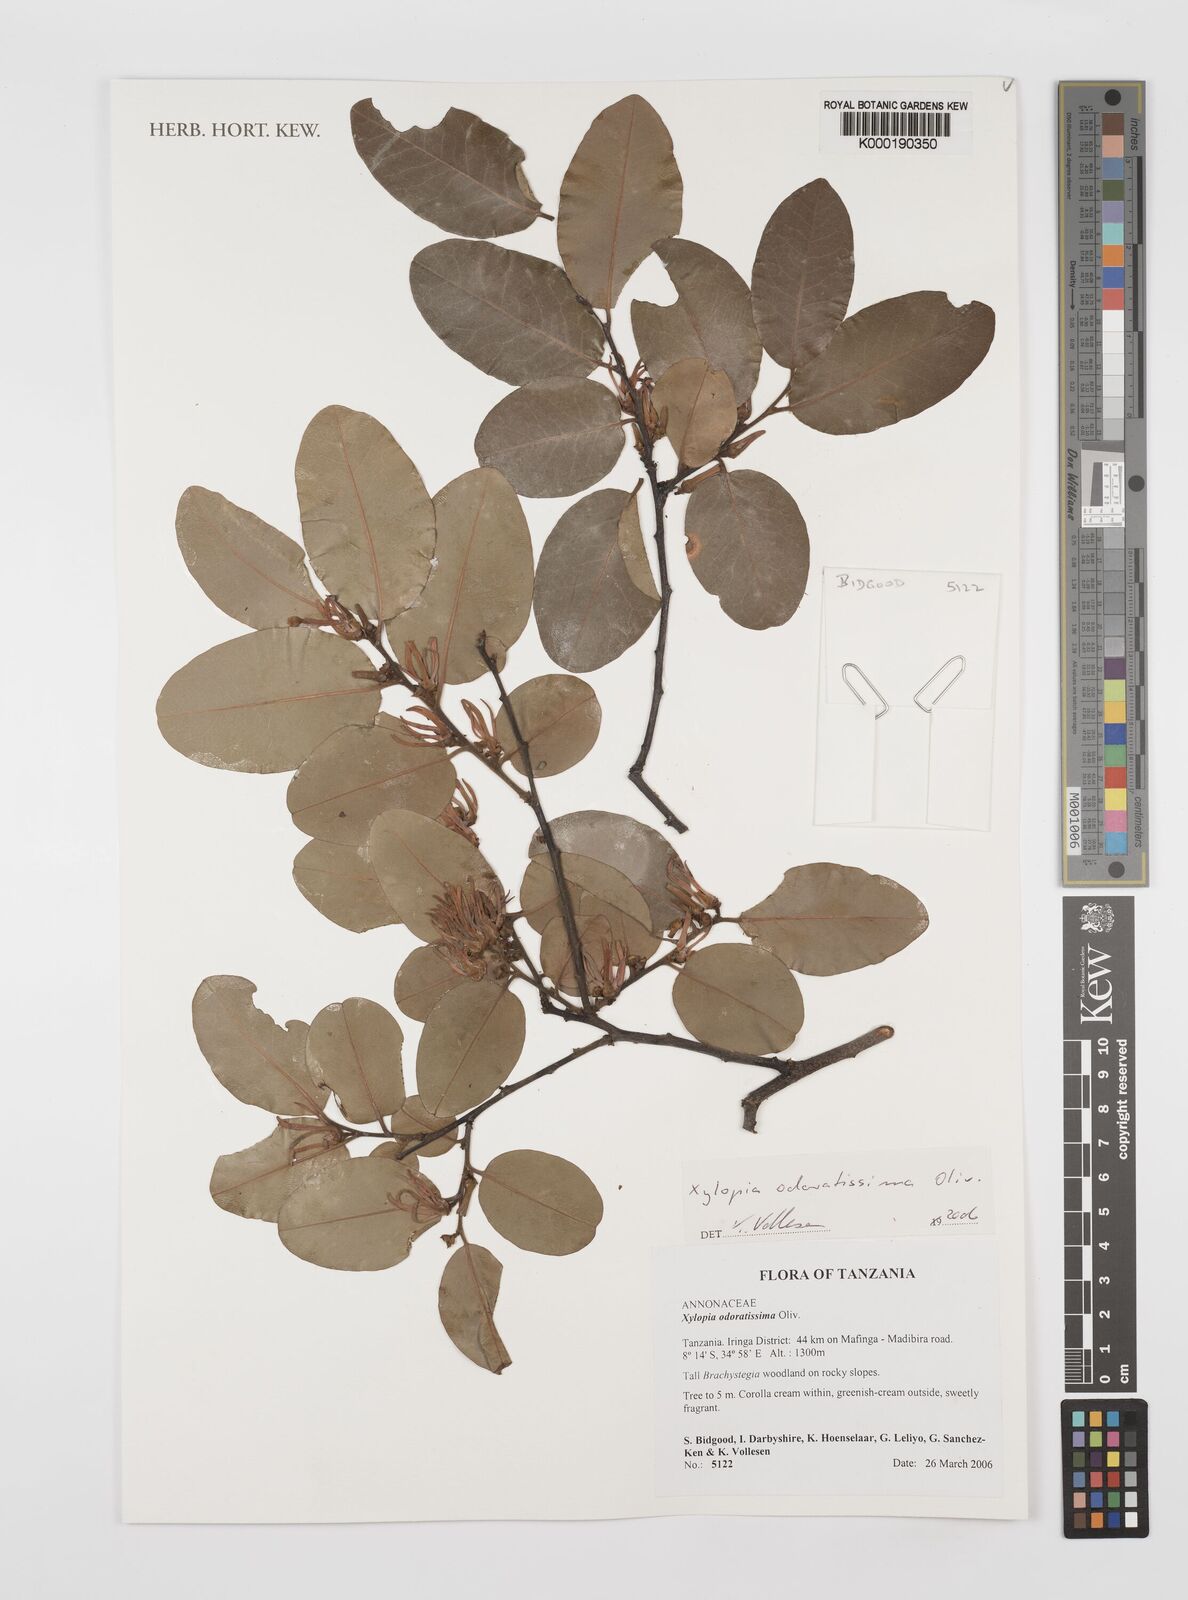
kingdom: Plantae
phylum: Tracheophyta
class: Magnoliopsida
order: Magnoliales
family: Annonaceae
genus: Xylopia
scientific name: Xylopia odoratissima
